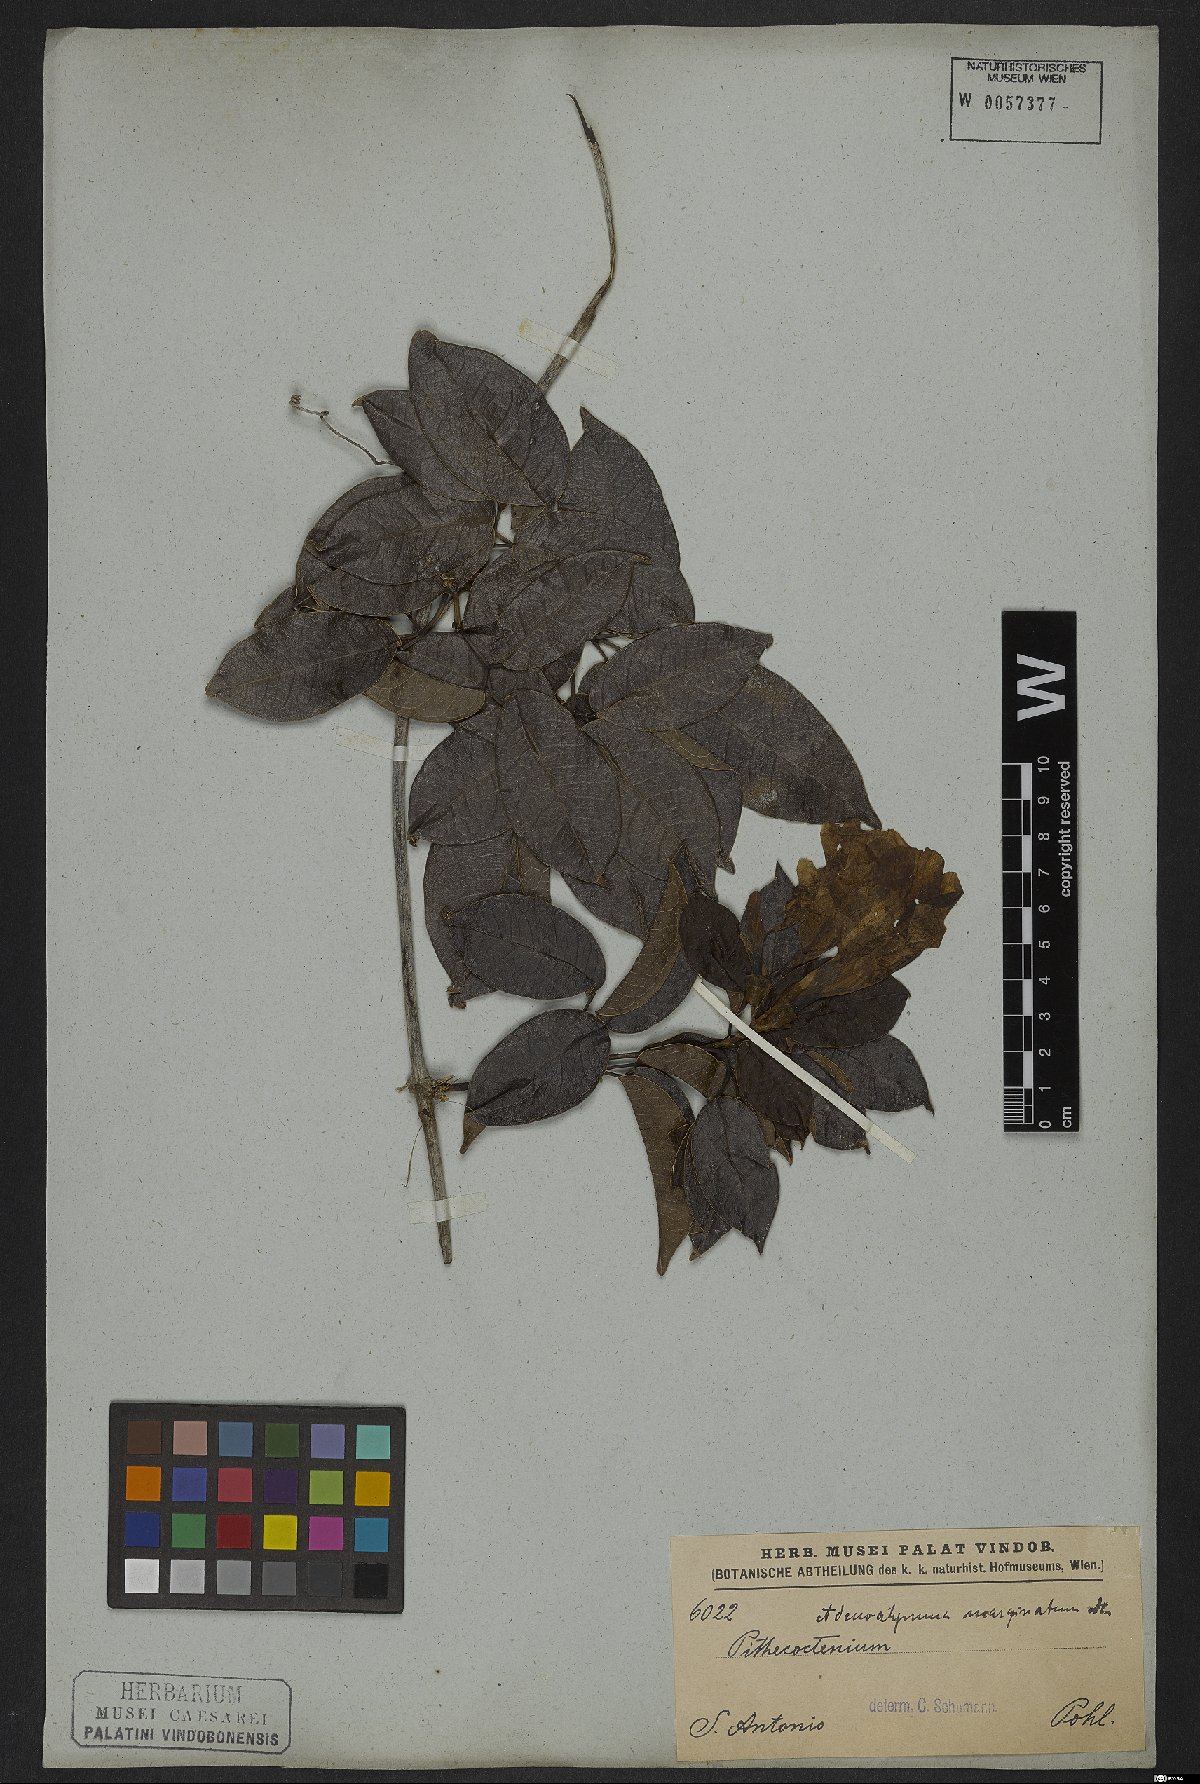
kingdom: Plantae
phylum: Tracheophyta
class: Magnoliopsida
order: Lamiales
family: Bignoniaceae
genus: Adenocalymma
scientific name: Adenocalymma marginatum
